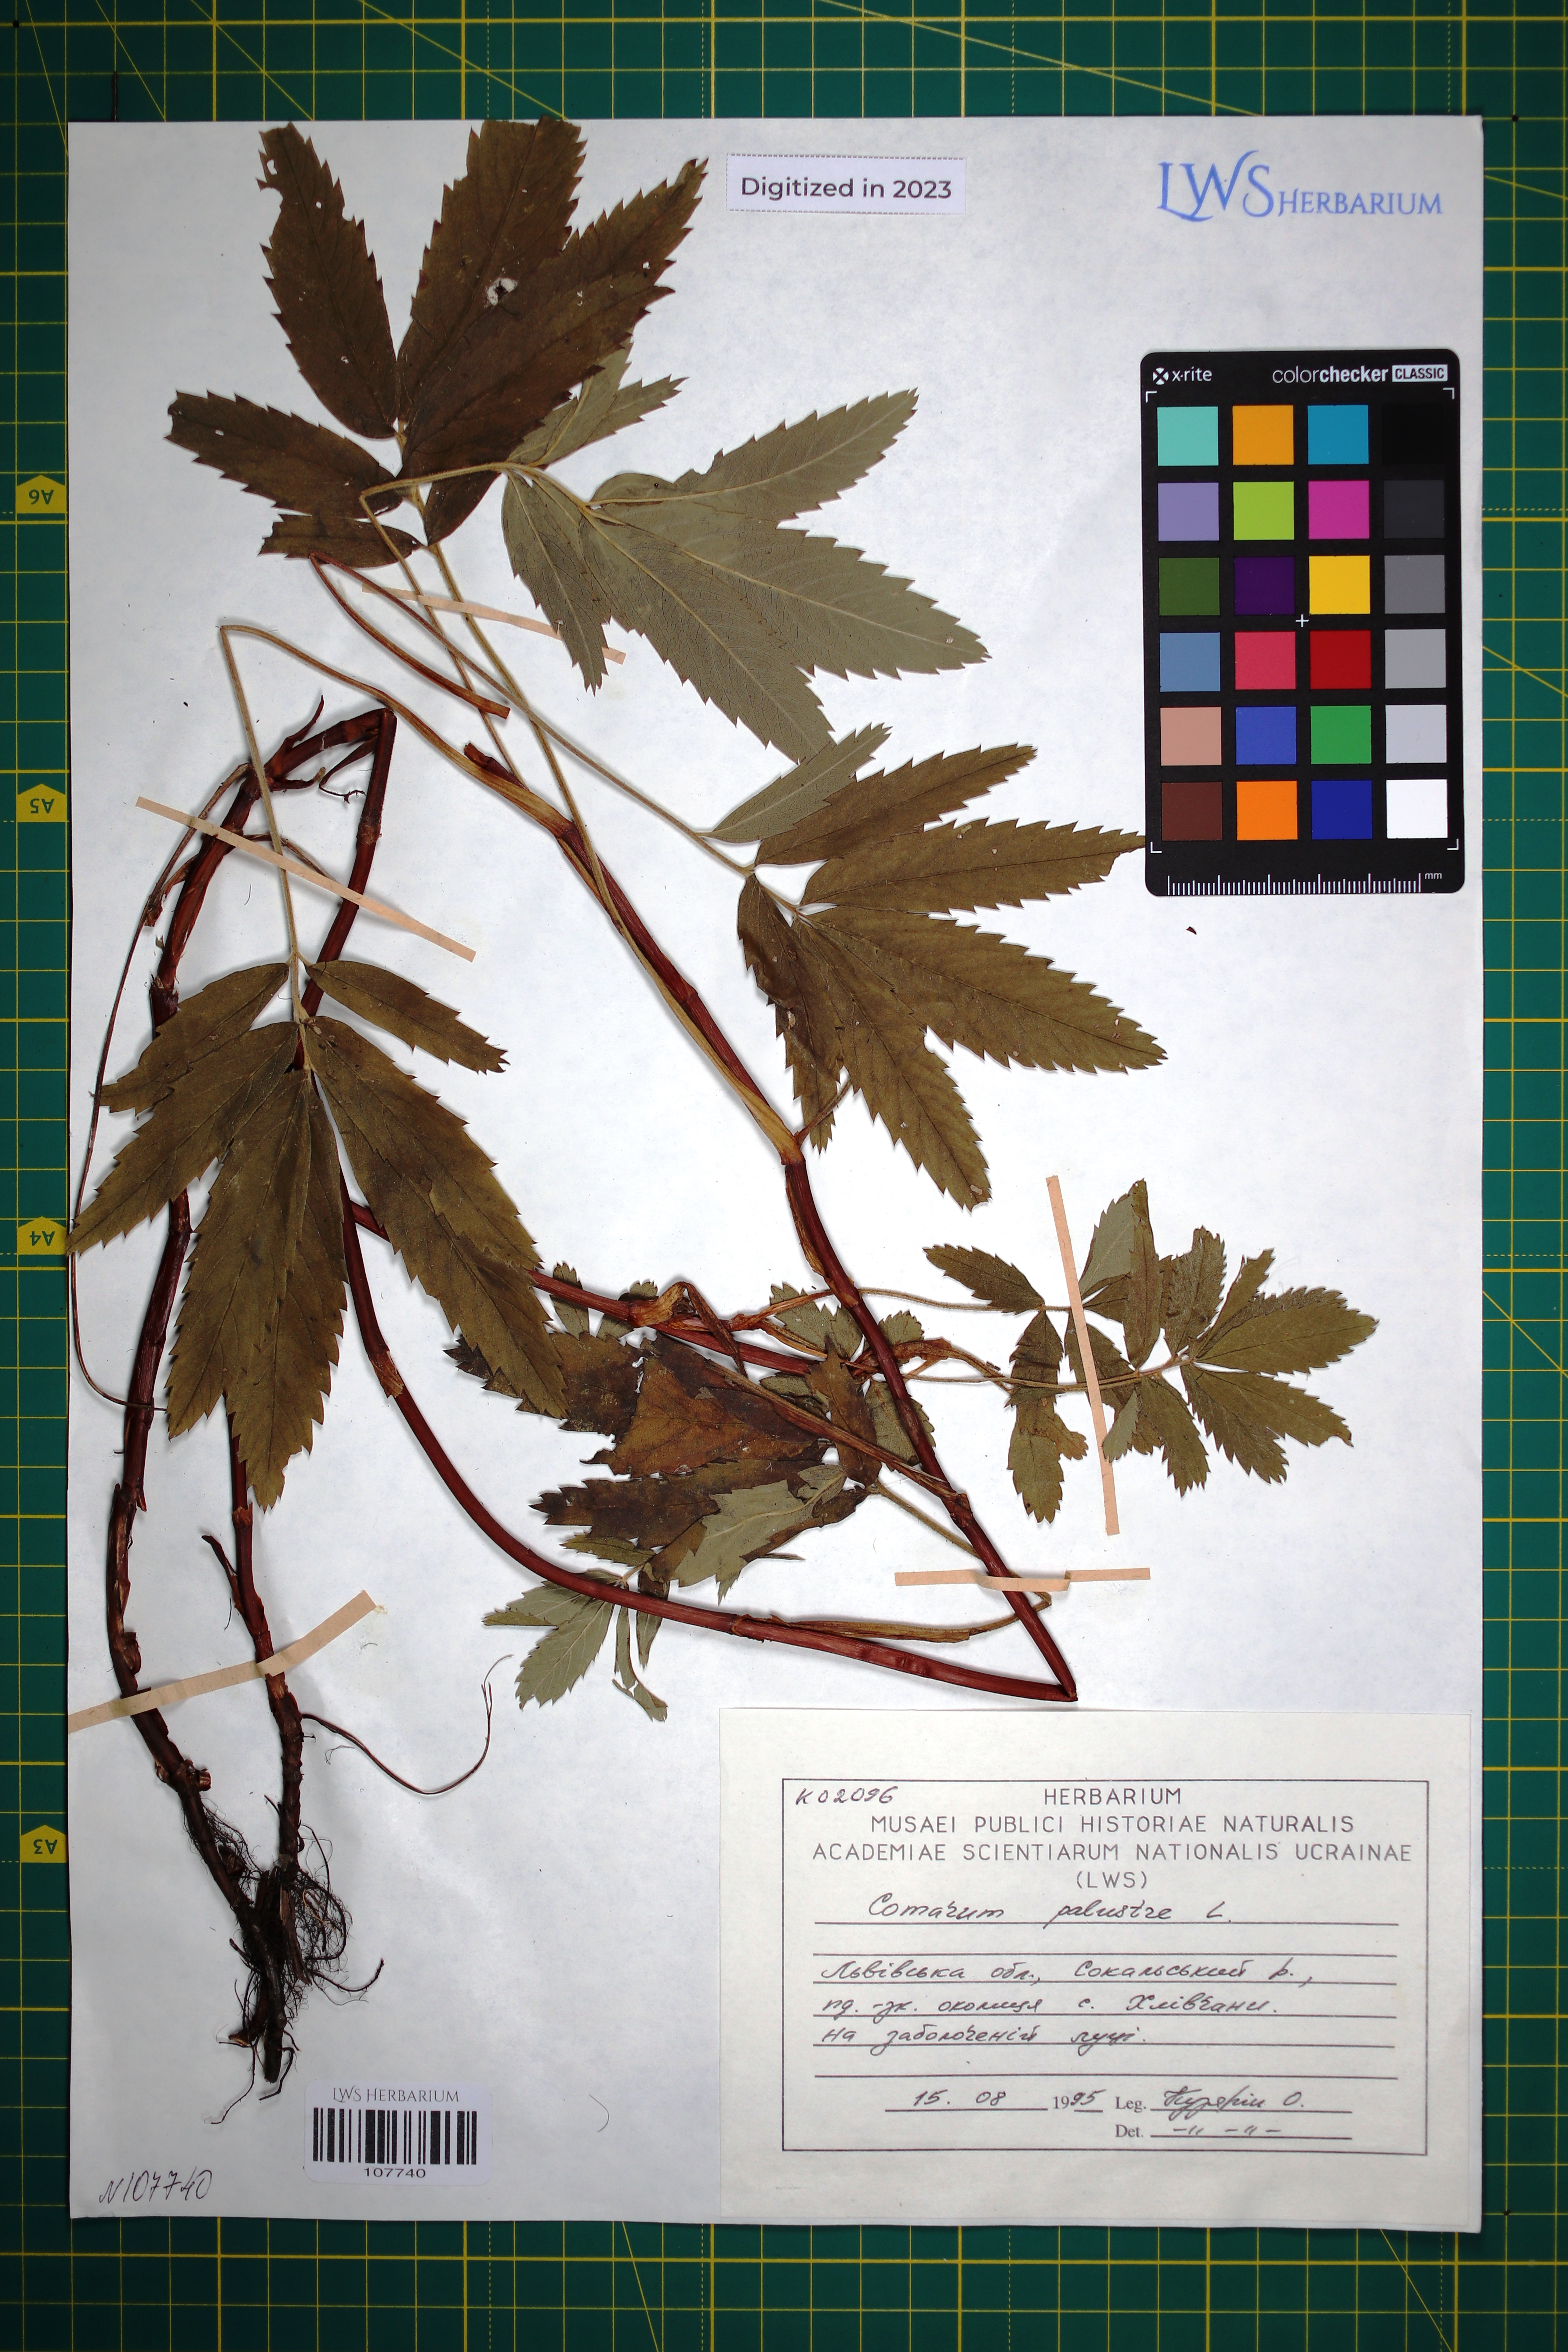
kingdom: Plantae
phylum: Tracheophyta
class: Magnoliopsida
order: Rosales
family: Rosaceae
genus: Comarum
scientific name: Comarum palustre
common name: Marsh cinquefoil
